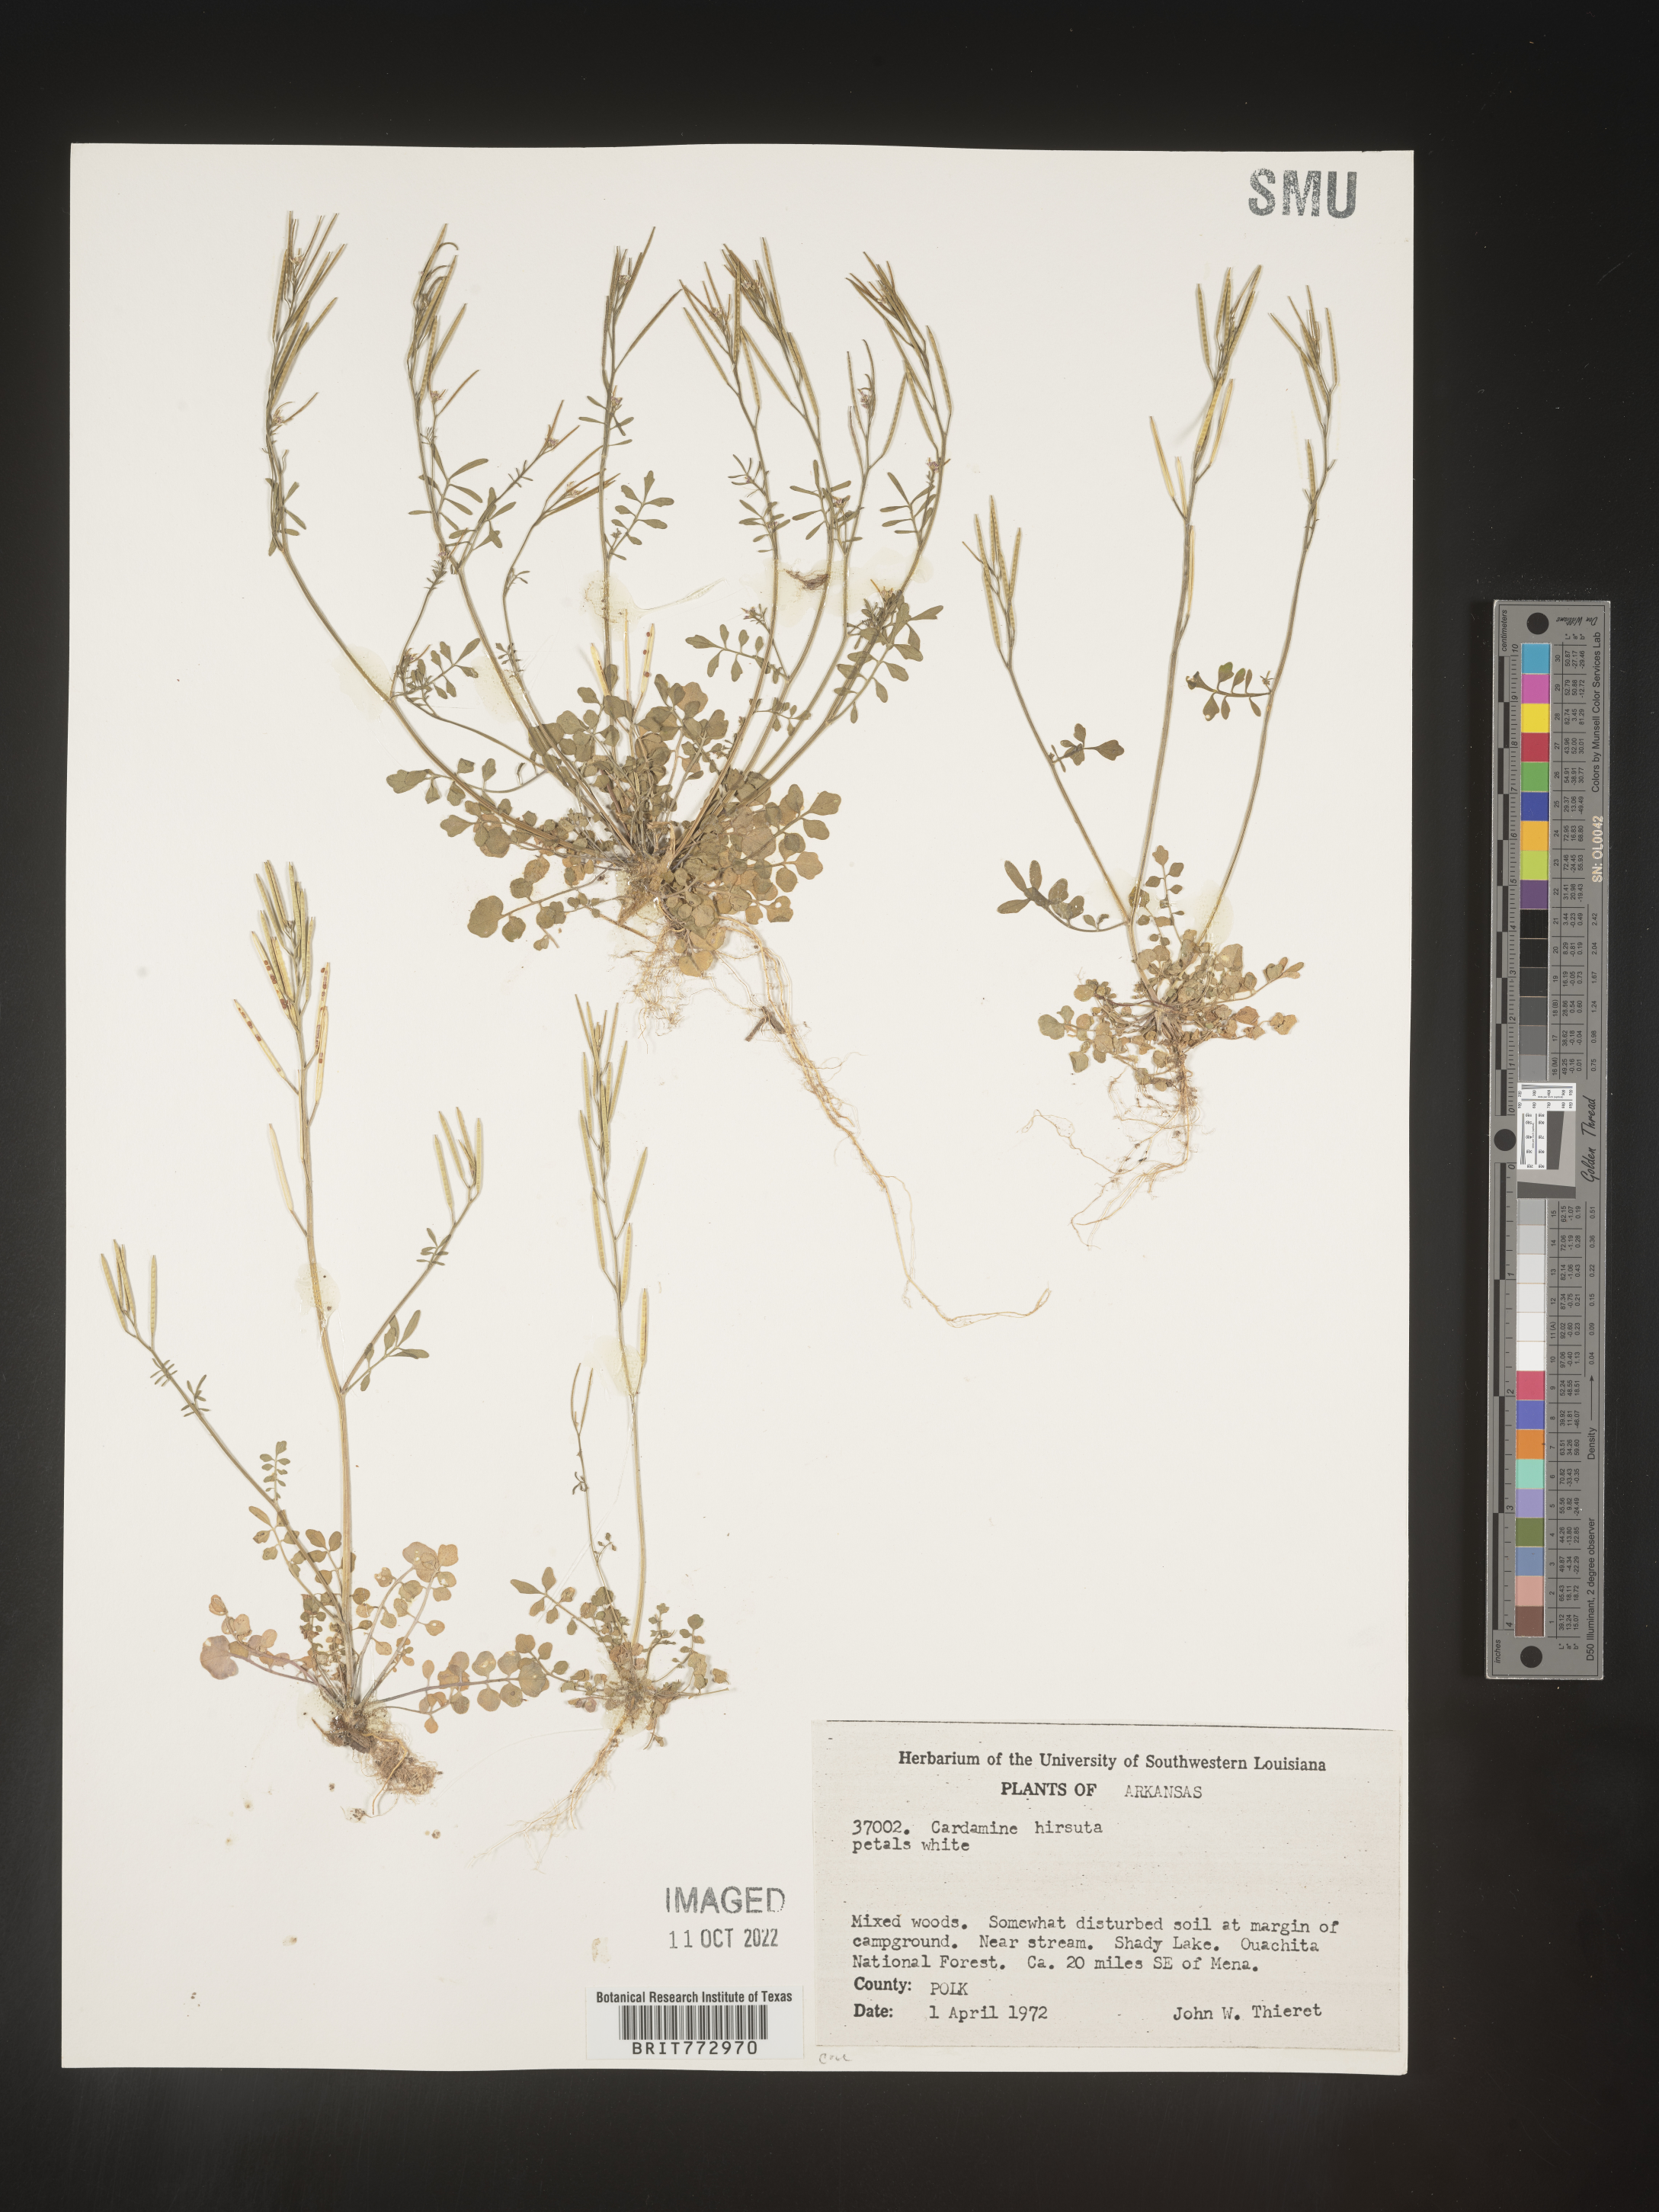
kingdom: Plantae
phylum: Tracheophyta
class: Magnoliopsida
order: Brassicales
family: Brassicaceae
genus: Cardamine
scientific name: Cardamine hirsuta
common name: Hairy bittercress
